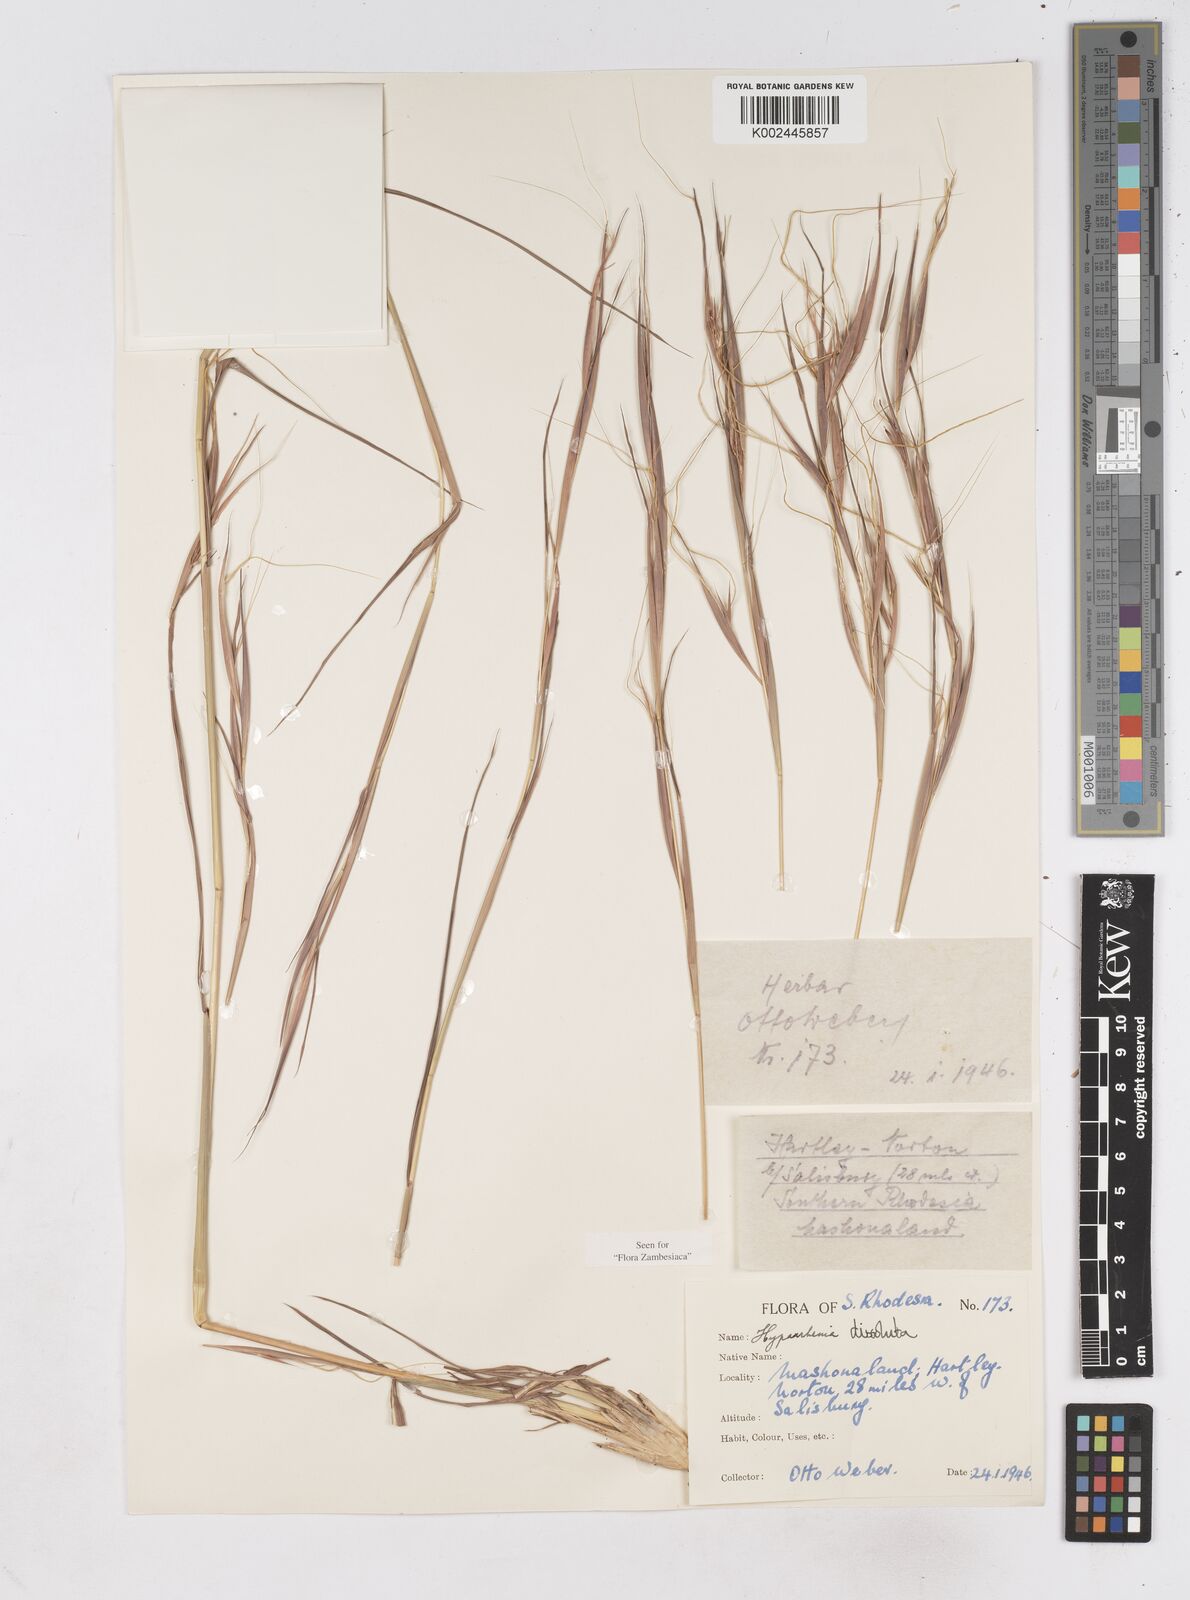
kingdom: Plantae
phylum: Tracheophyta
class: Liliopsida
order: Poales
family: Poaceae
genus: Hyperthelia
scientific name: Hyperthelia dissoluta
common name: Yellow thatching grass
